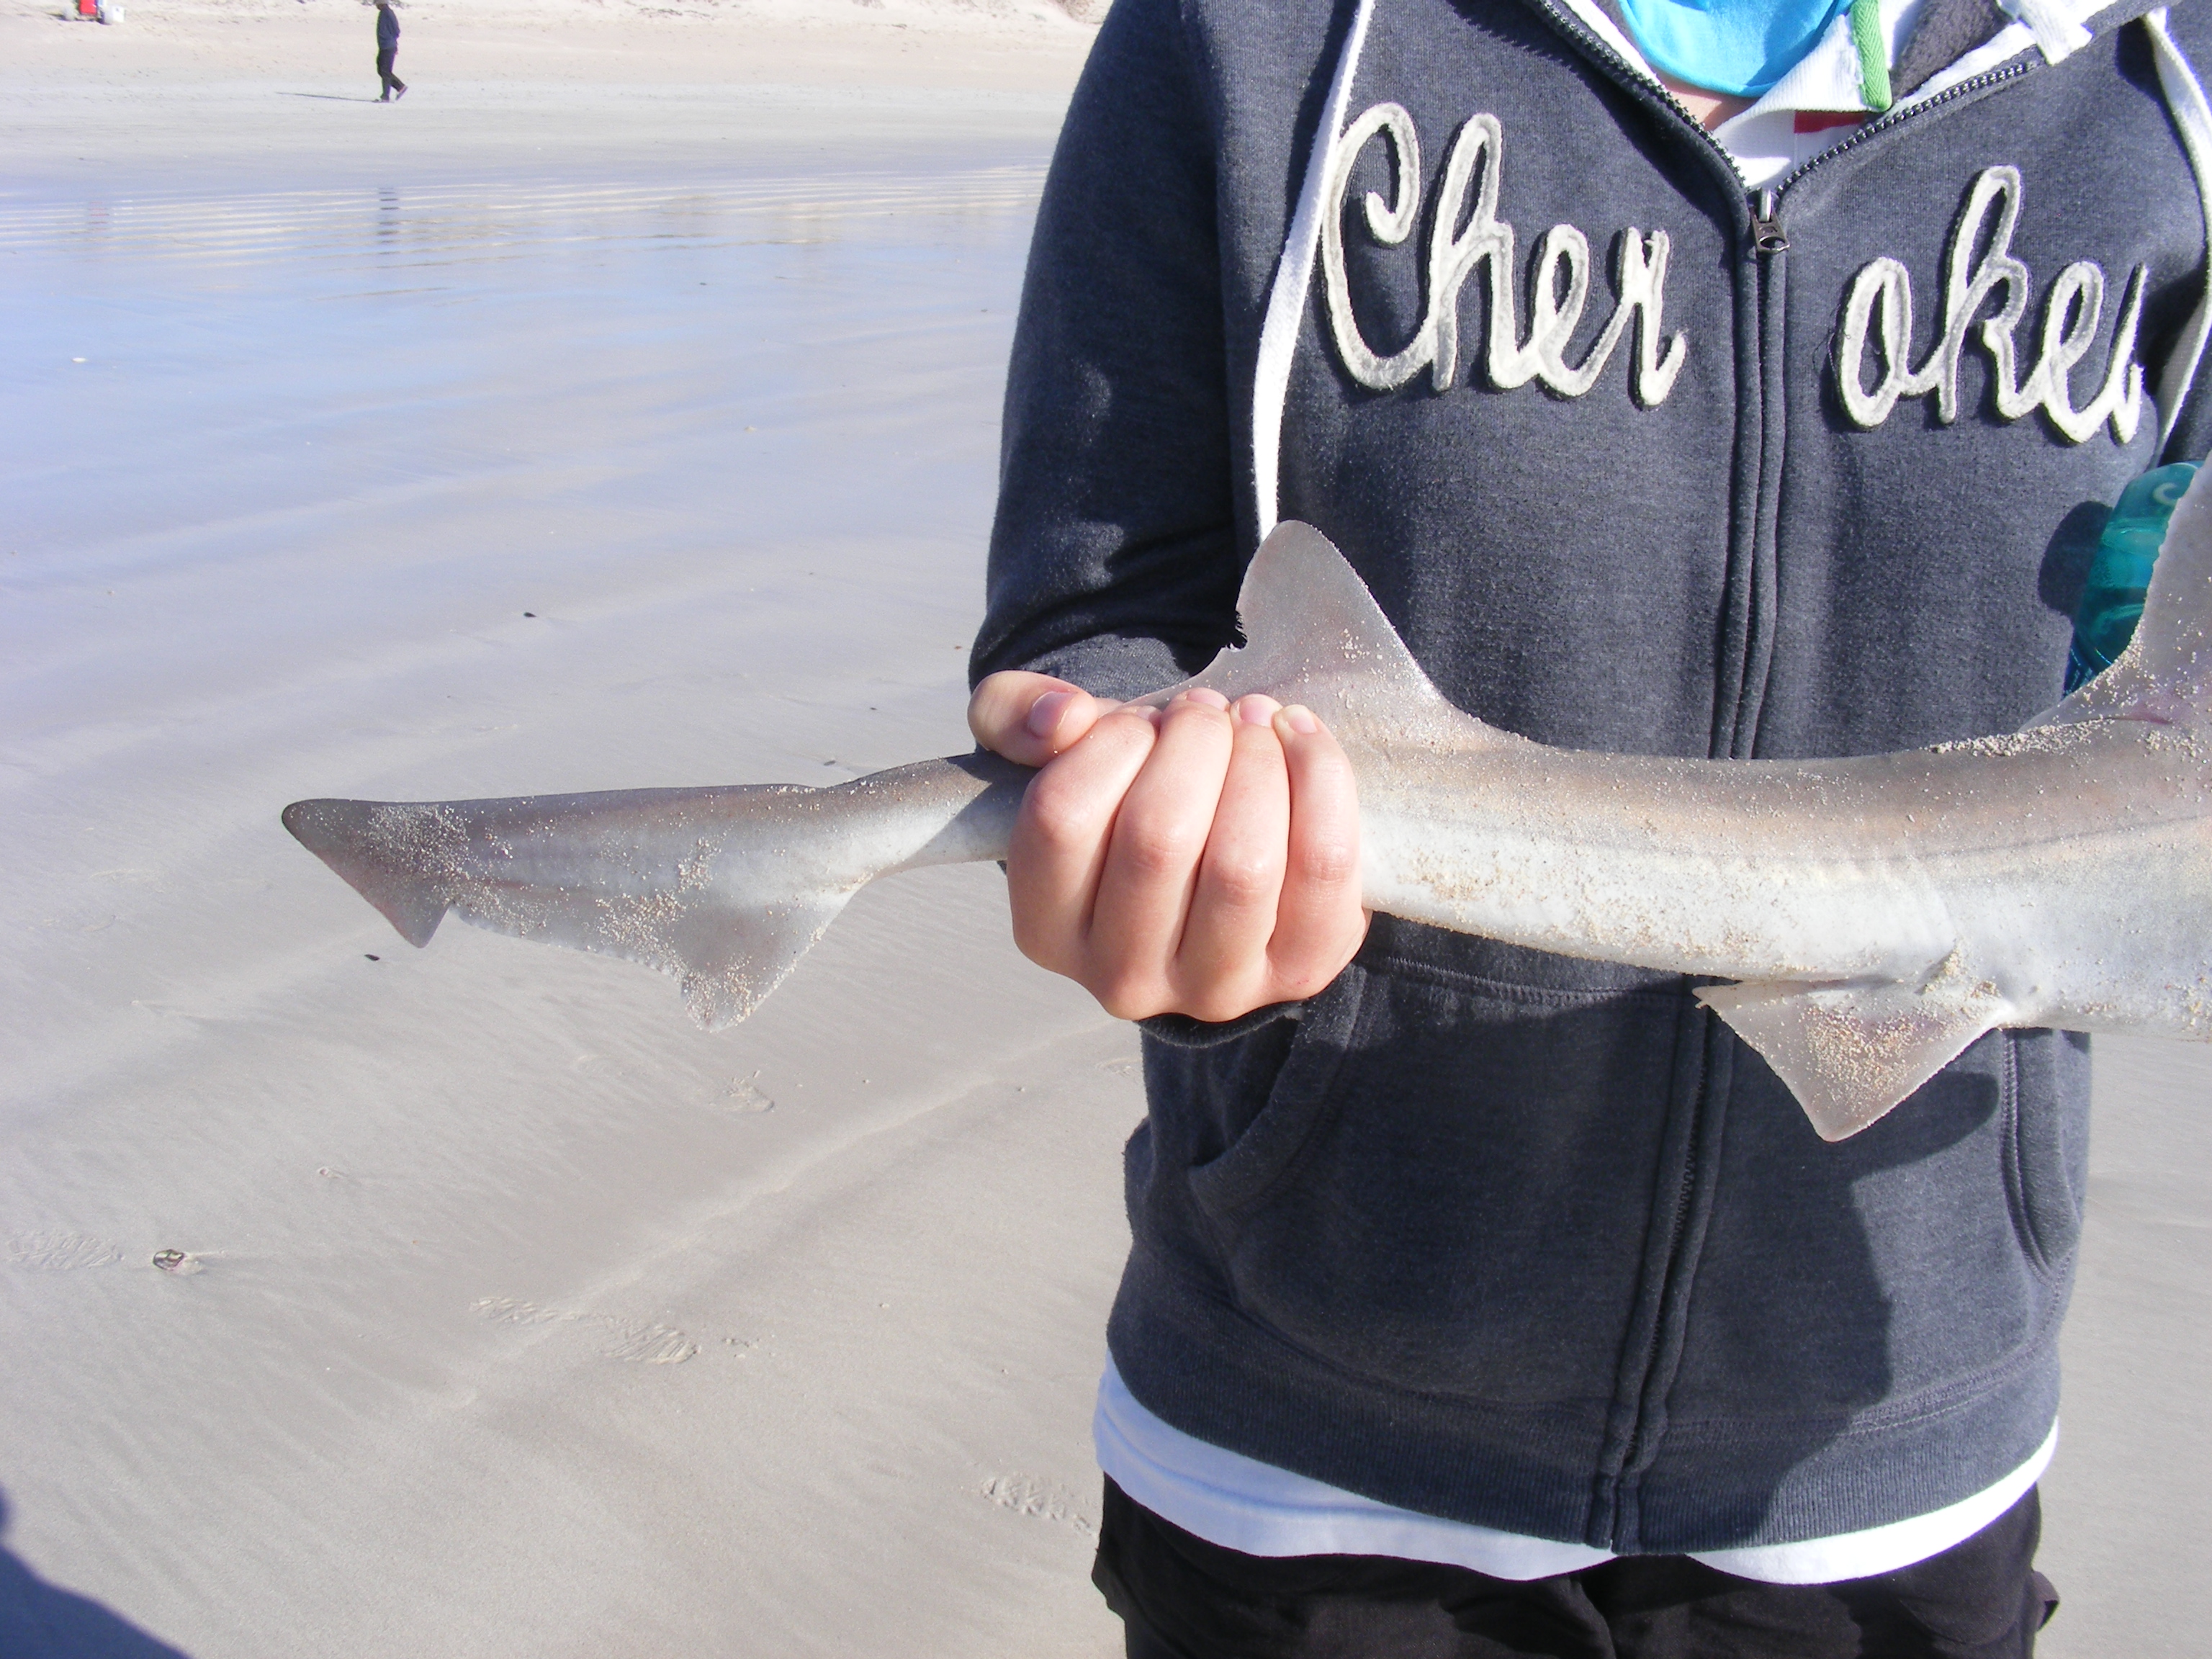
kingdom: Animalia
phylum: Chordata
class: Elasmobranchii
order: Carcharhiniformes
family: Triakidae
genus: Mustelus
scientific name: Mustelus mustelus
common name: Smooth-hound
